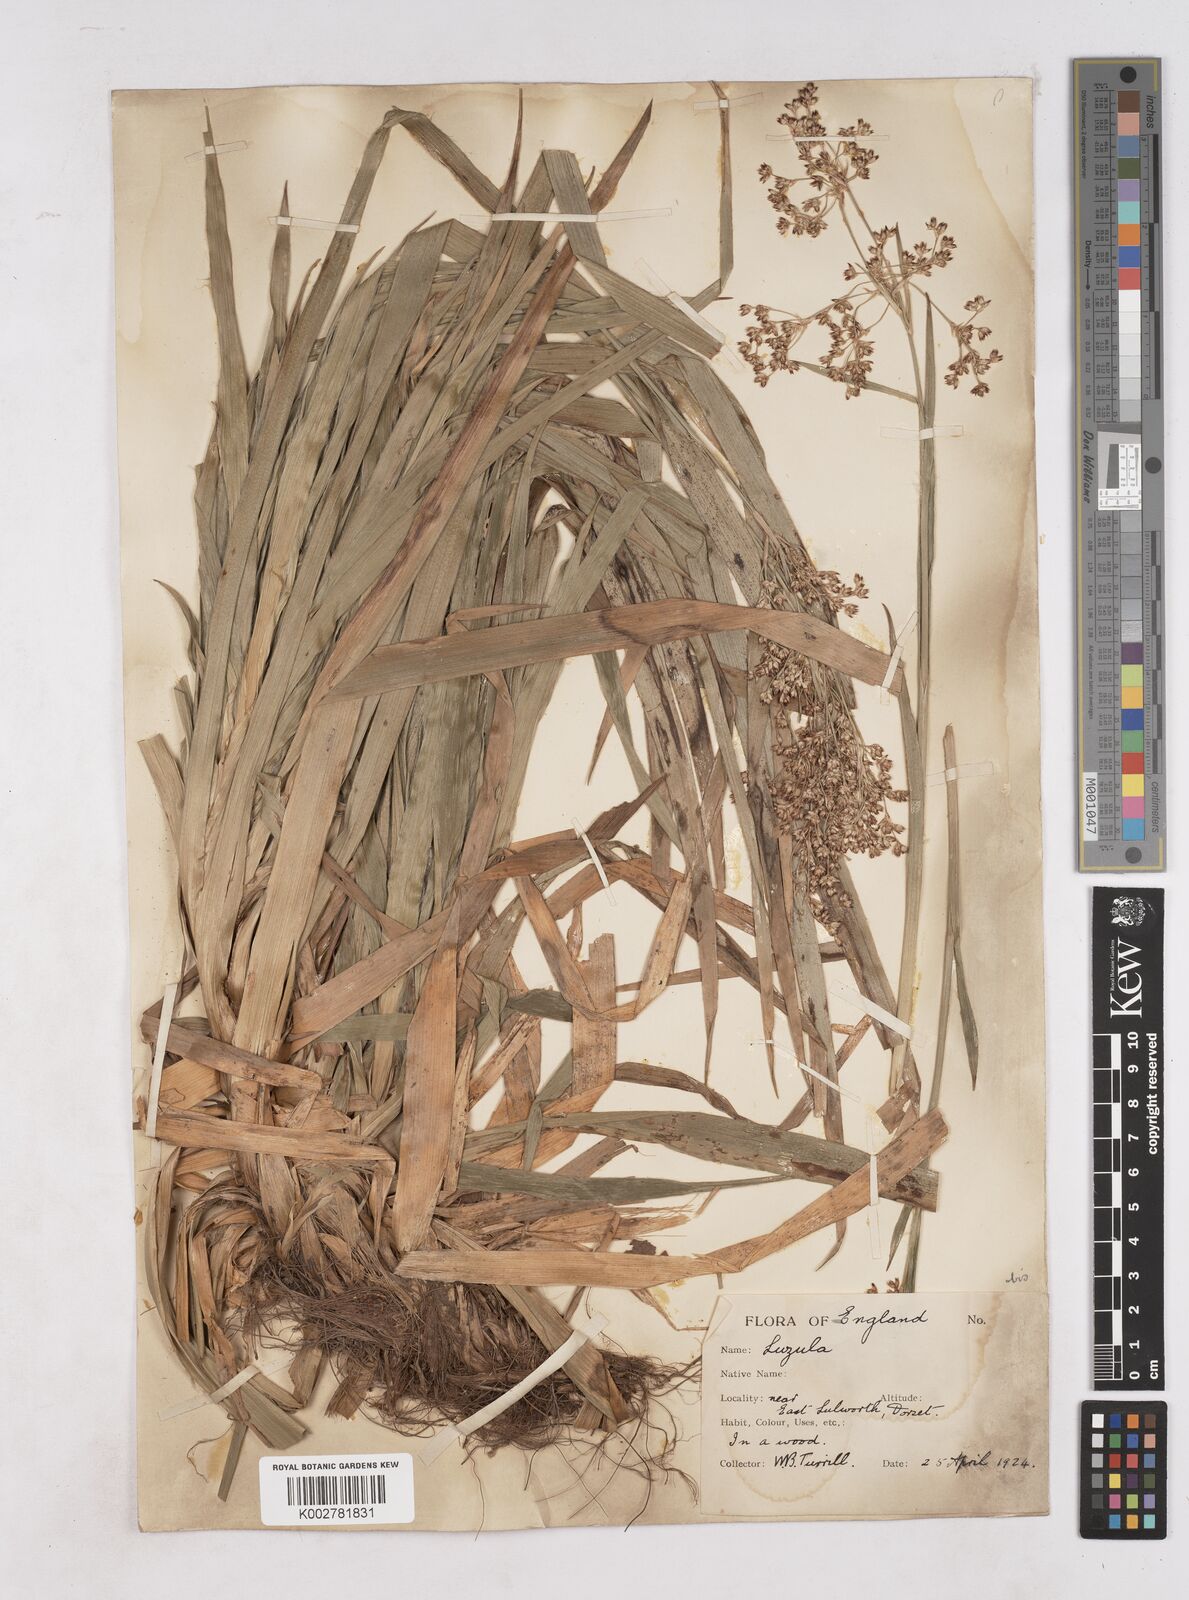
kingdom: Plantae
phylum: Tracheophyta
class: Liliopsida
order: Poales
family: Juncaceae
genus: Luzula
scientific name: Luzula sylvatica
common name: Great wood-rush
